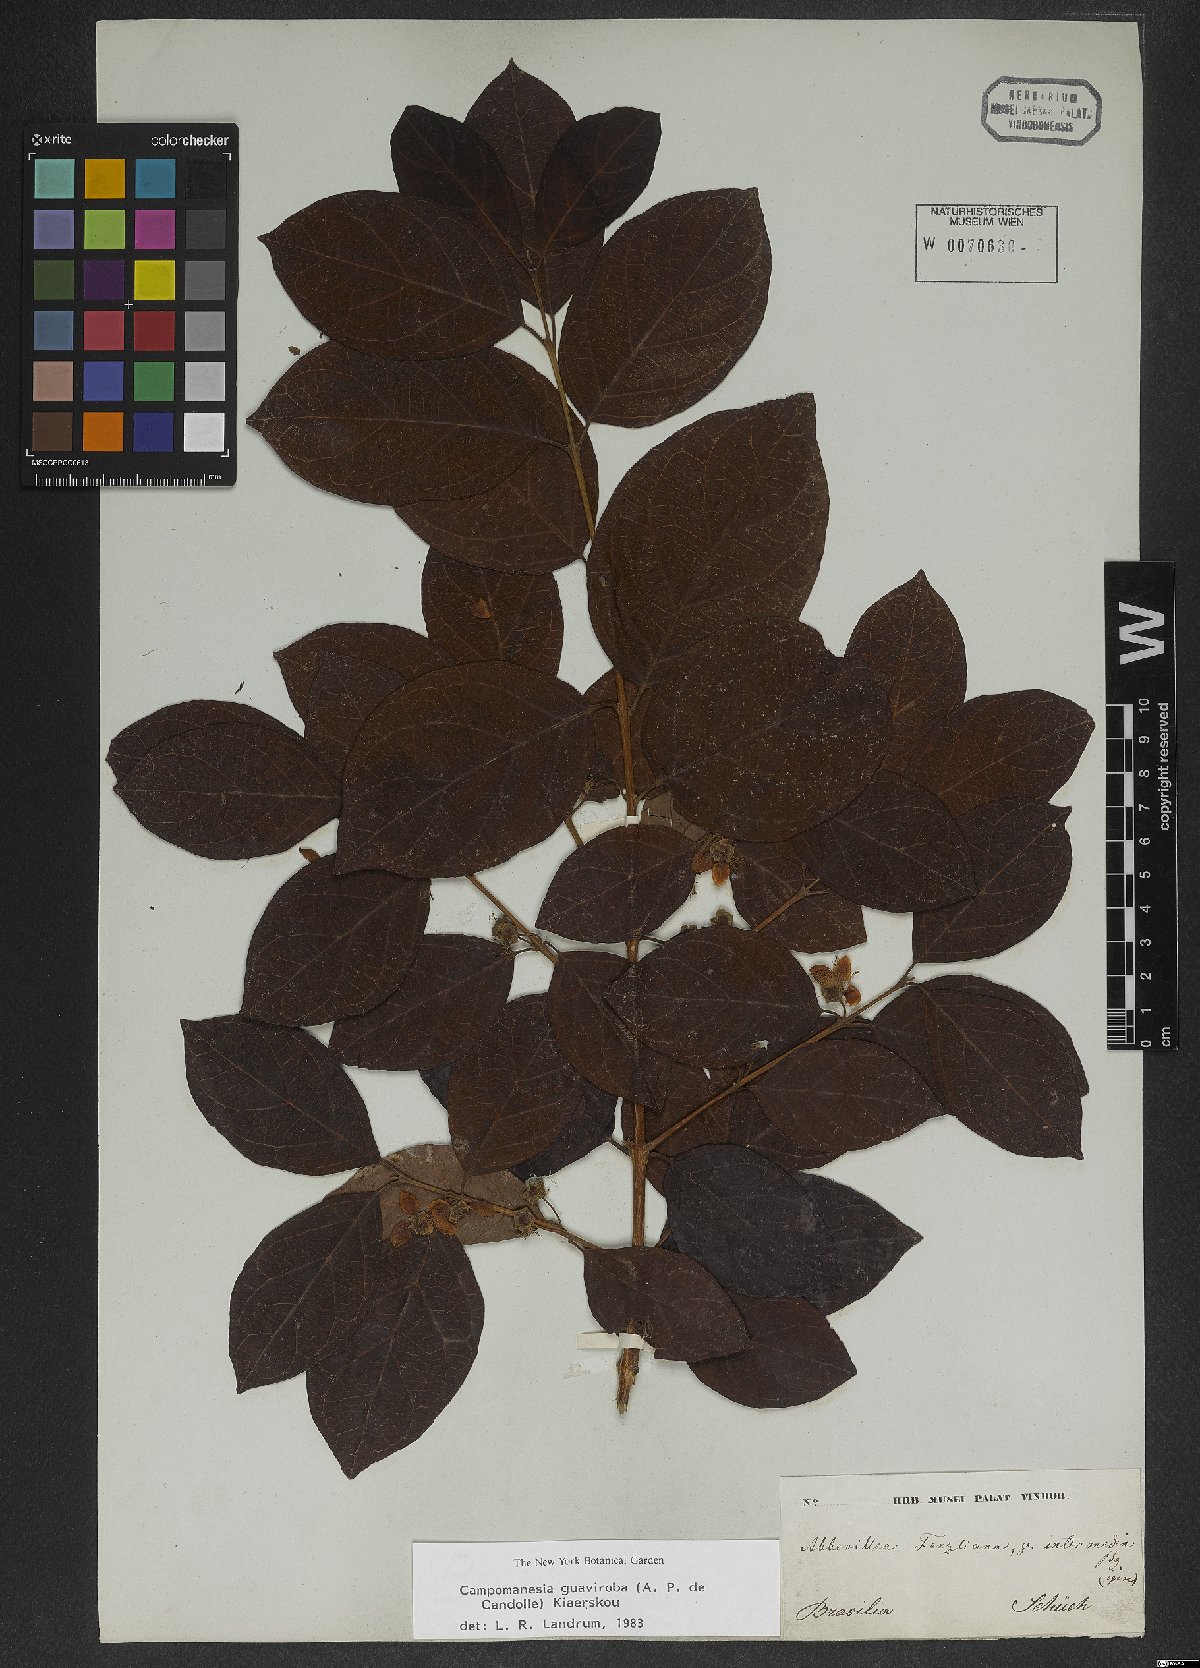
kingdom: Plantae
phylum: Tracheophyta
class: Magnoliopsida
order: Myrtales
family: Myrtaceae
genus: Campomanesia
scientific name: Campomanesia guaviroba
